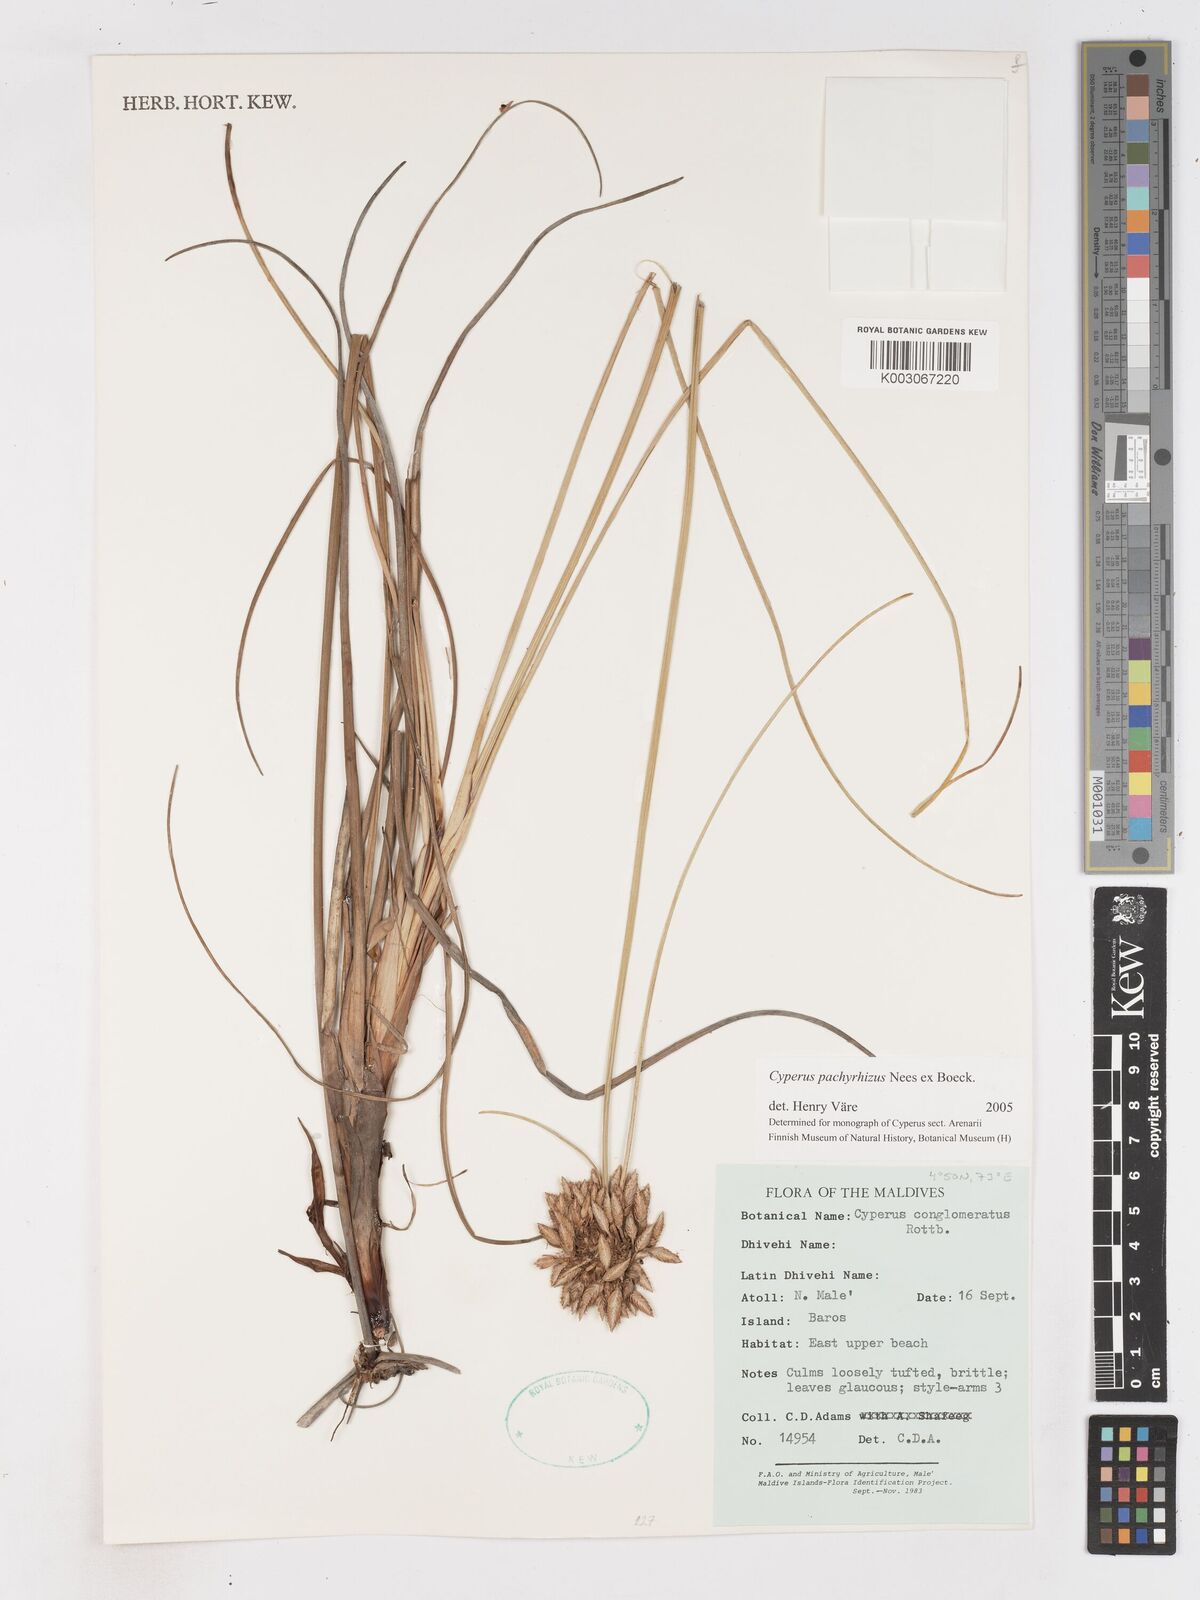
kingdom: Plantae
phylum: Tracheophyta
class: Liliopsida
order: Poales
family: Cyperaceae
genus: Cyperus
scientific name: Cyperus pachyrhizus
